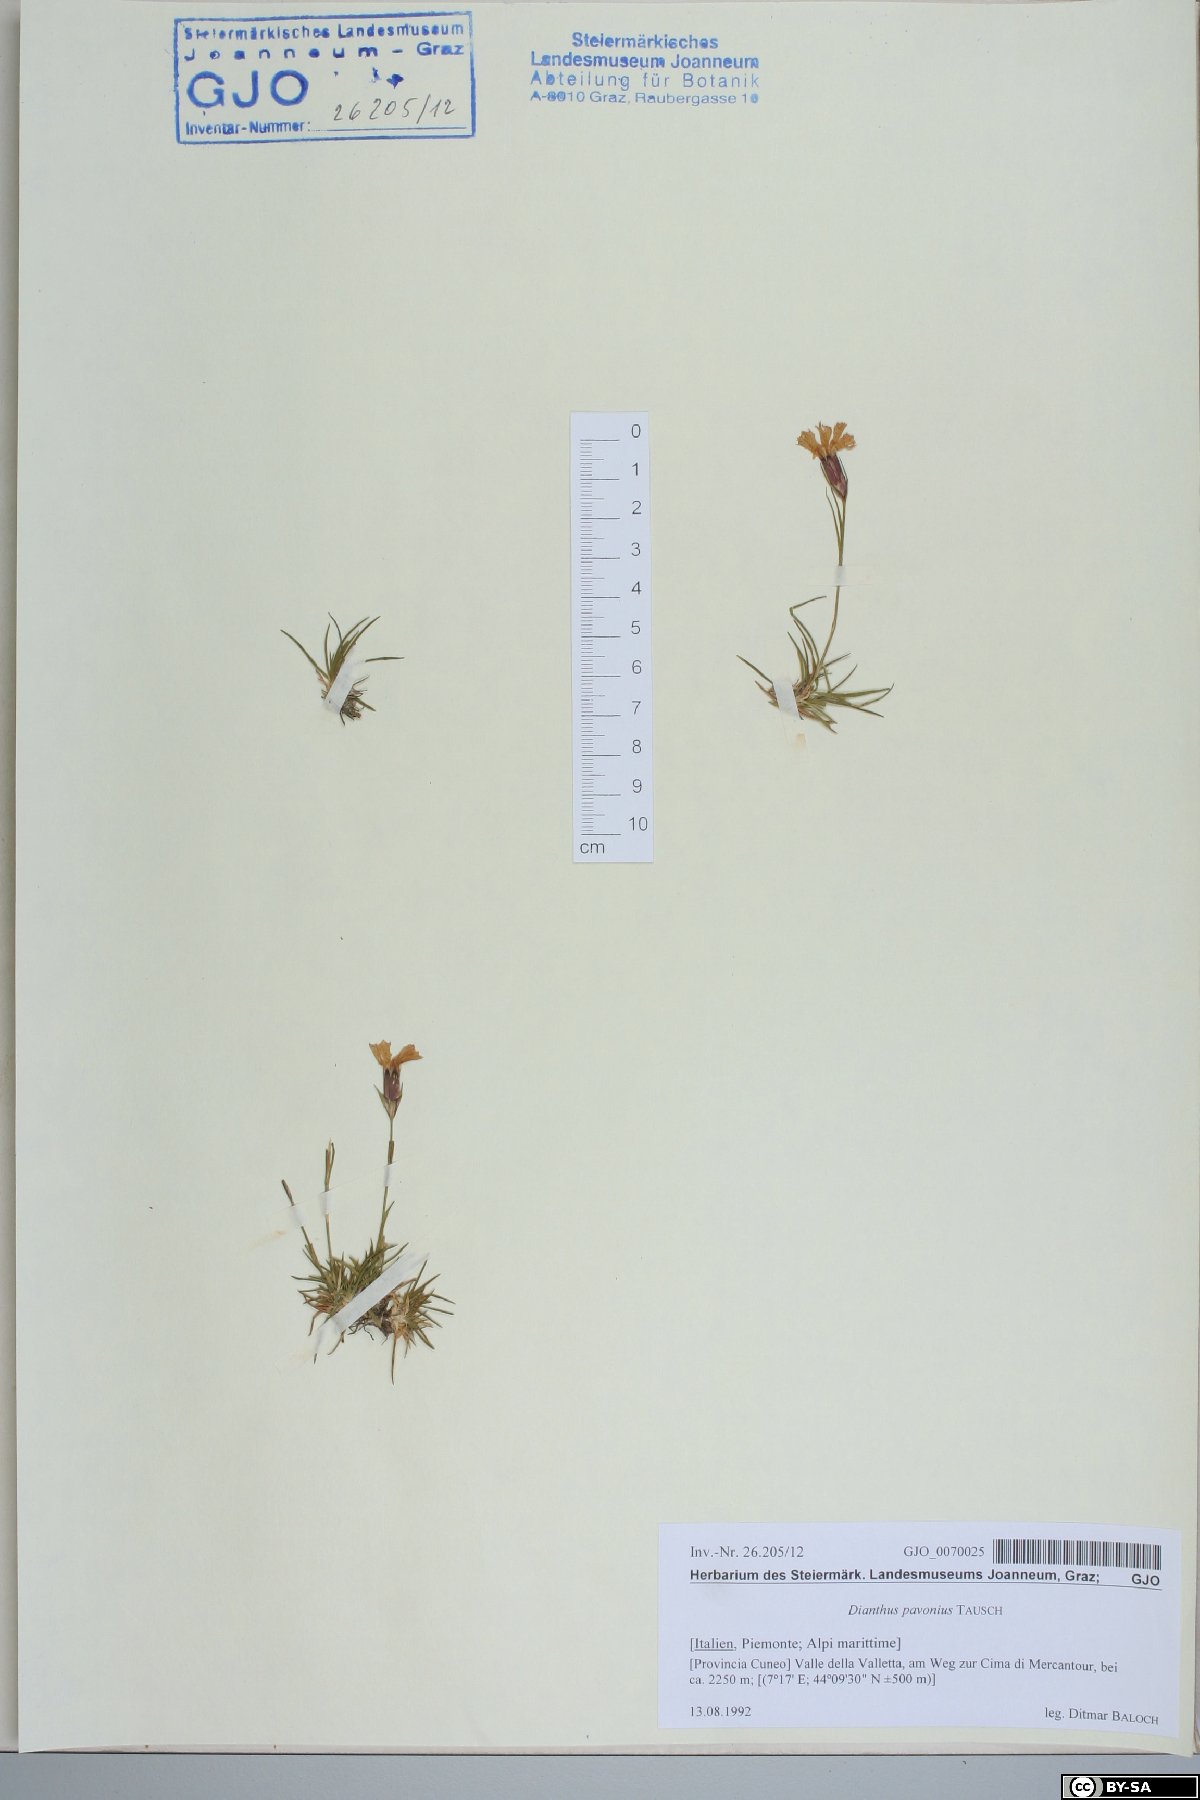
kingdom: Plantae
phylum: Tracheophyta
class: Magnoliopsida
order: Caryophyllales
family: Caryophyllaceae
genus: Dianthus
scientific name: Dianthus pavonius
